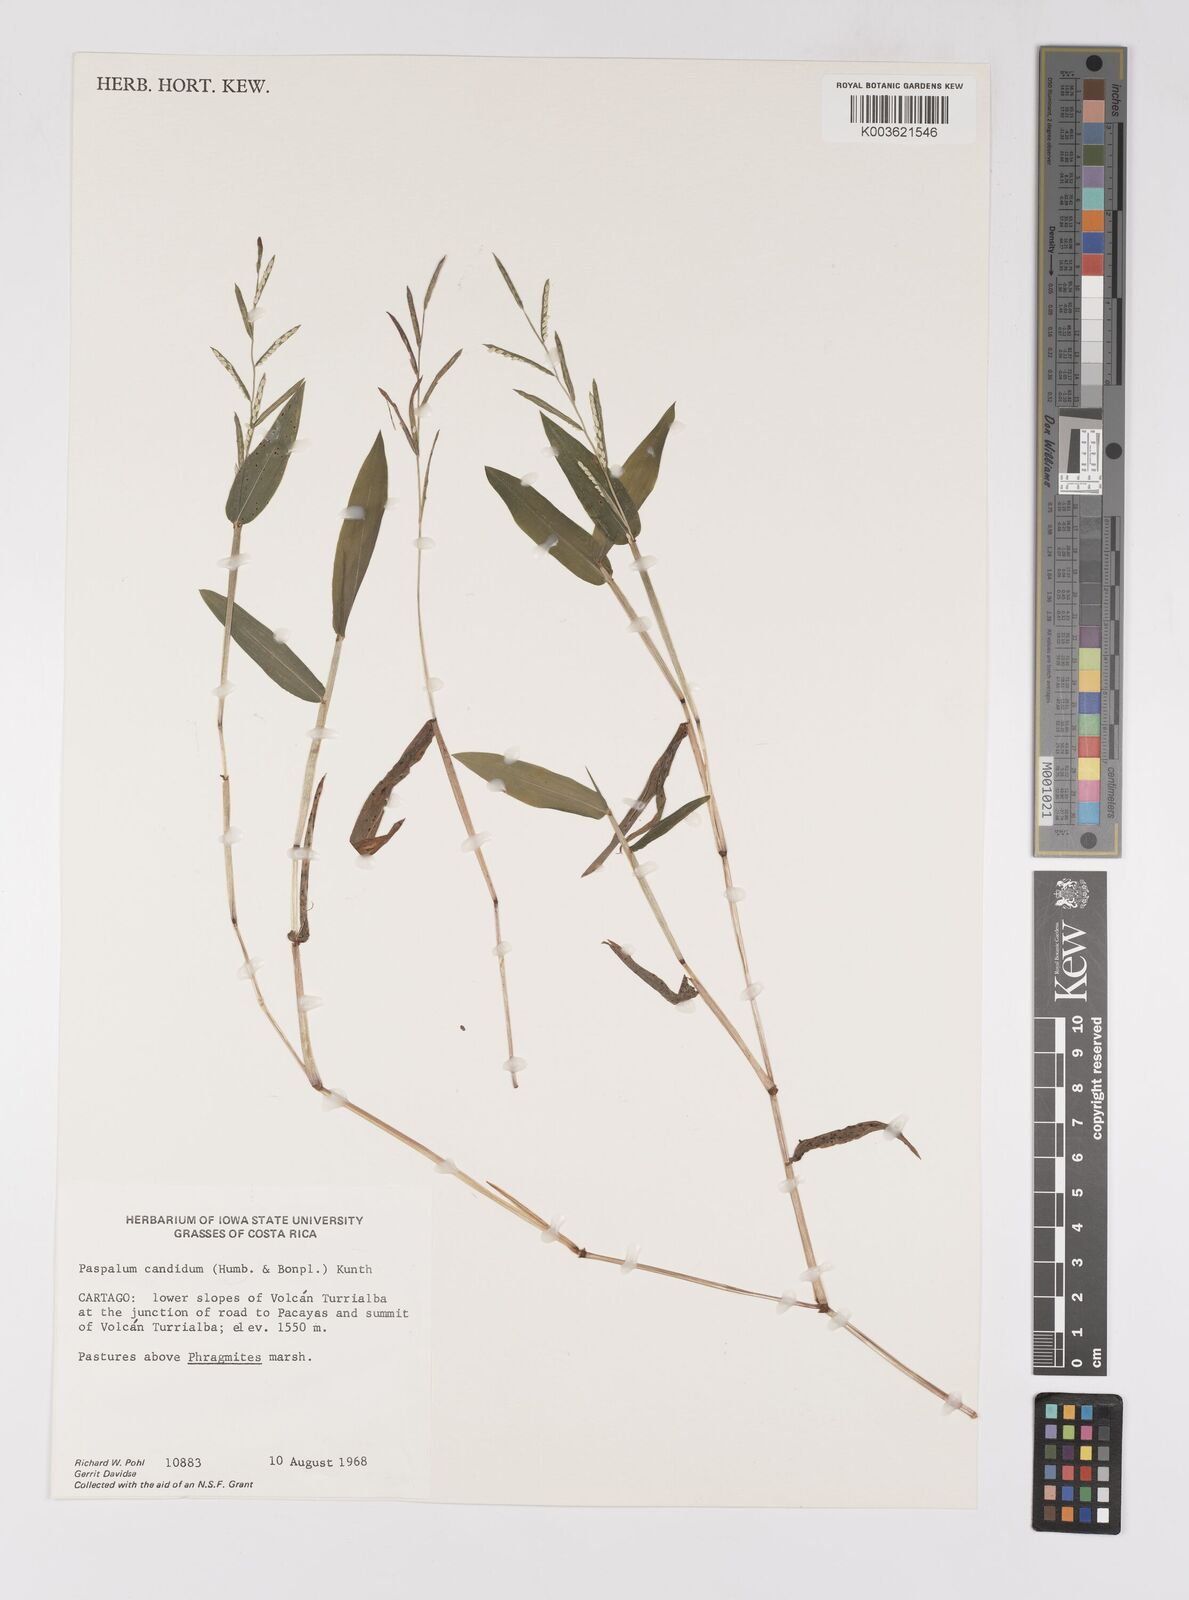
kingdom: Plantae
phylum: Tracheophyta
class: Liliopsida
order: Poales
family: Poaceae
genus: Paspalum
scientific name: Paspalum candidum
